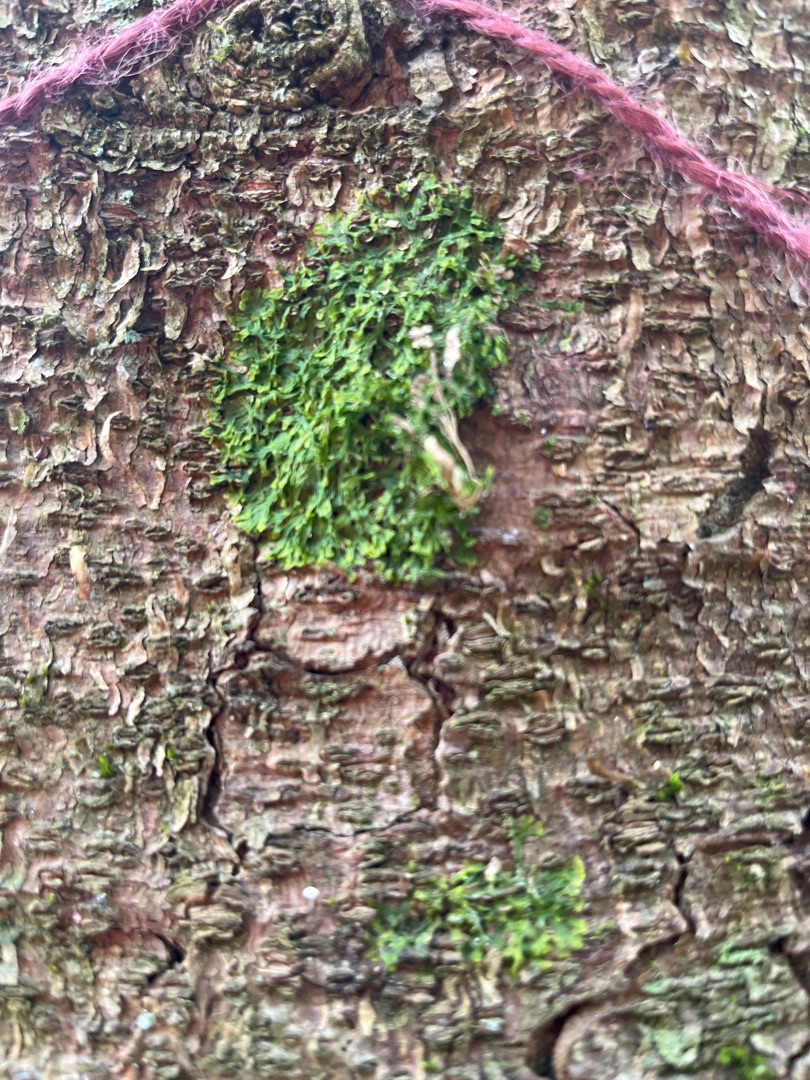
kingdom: Plantae
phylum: Marchantiophyta
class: Jungermanniopsida
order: Metzgeriales
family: Metzgeriaceae
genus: Metzgeria
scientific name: Metzgeria furcata
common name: Almindelig gaffelløv
